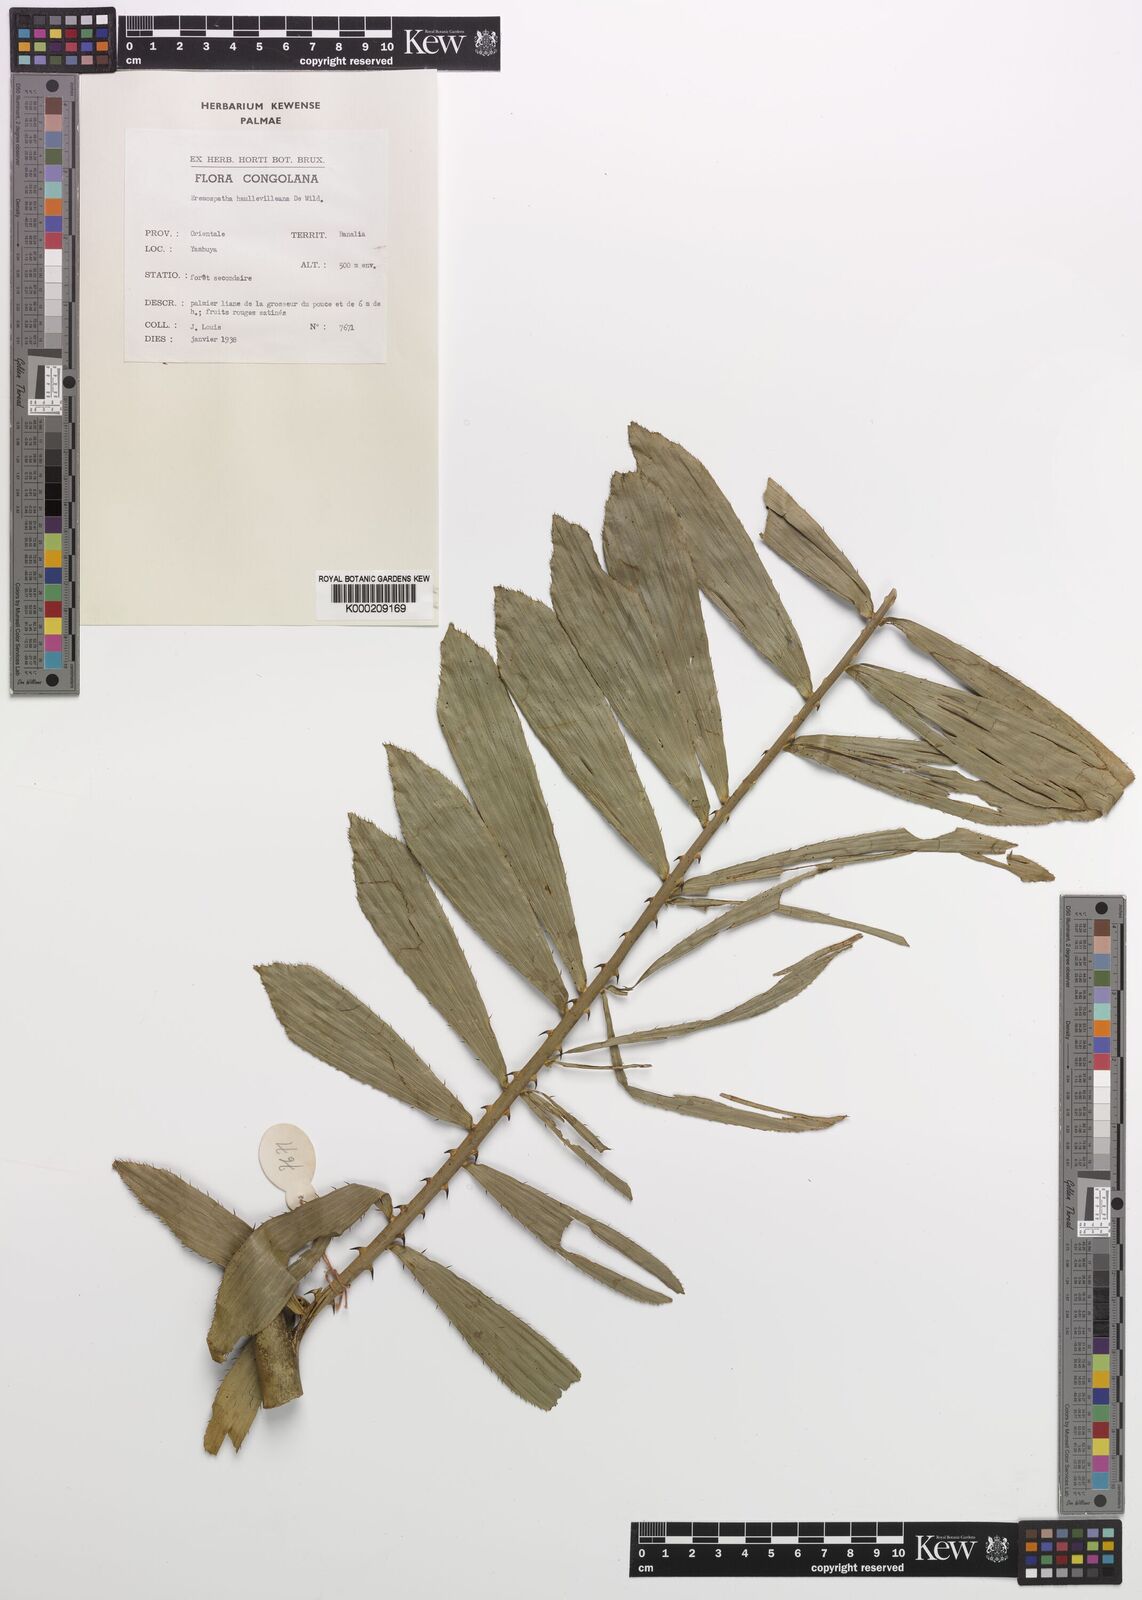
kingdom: Plantae
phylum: Tracheophyta
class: Liliopsida
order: Arecales
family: Arecaceae
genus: Eremospatha
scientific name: Eremospatha haullevilleana
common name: Rattan
